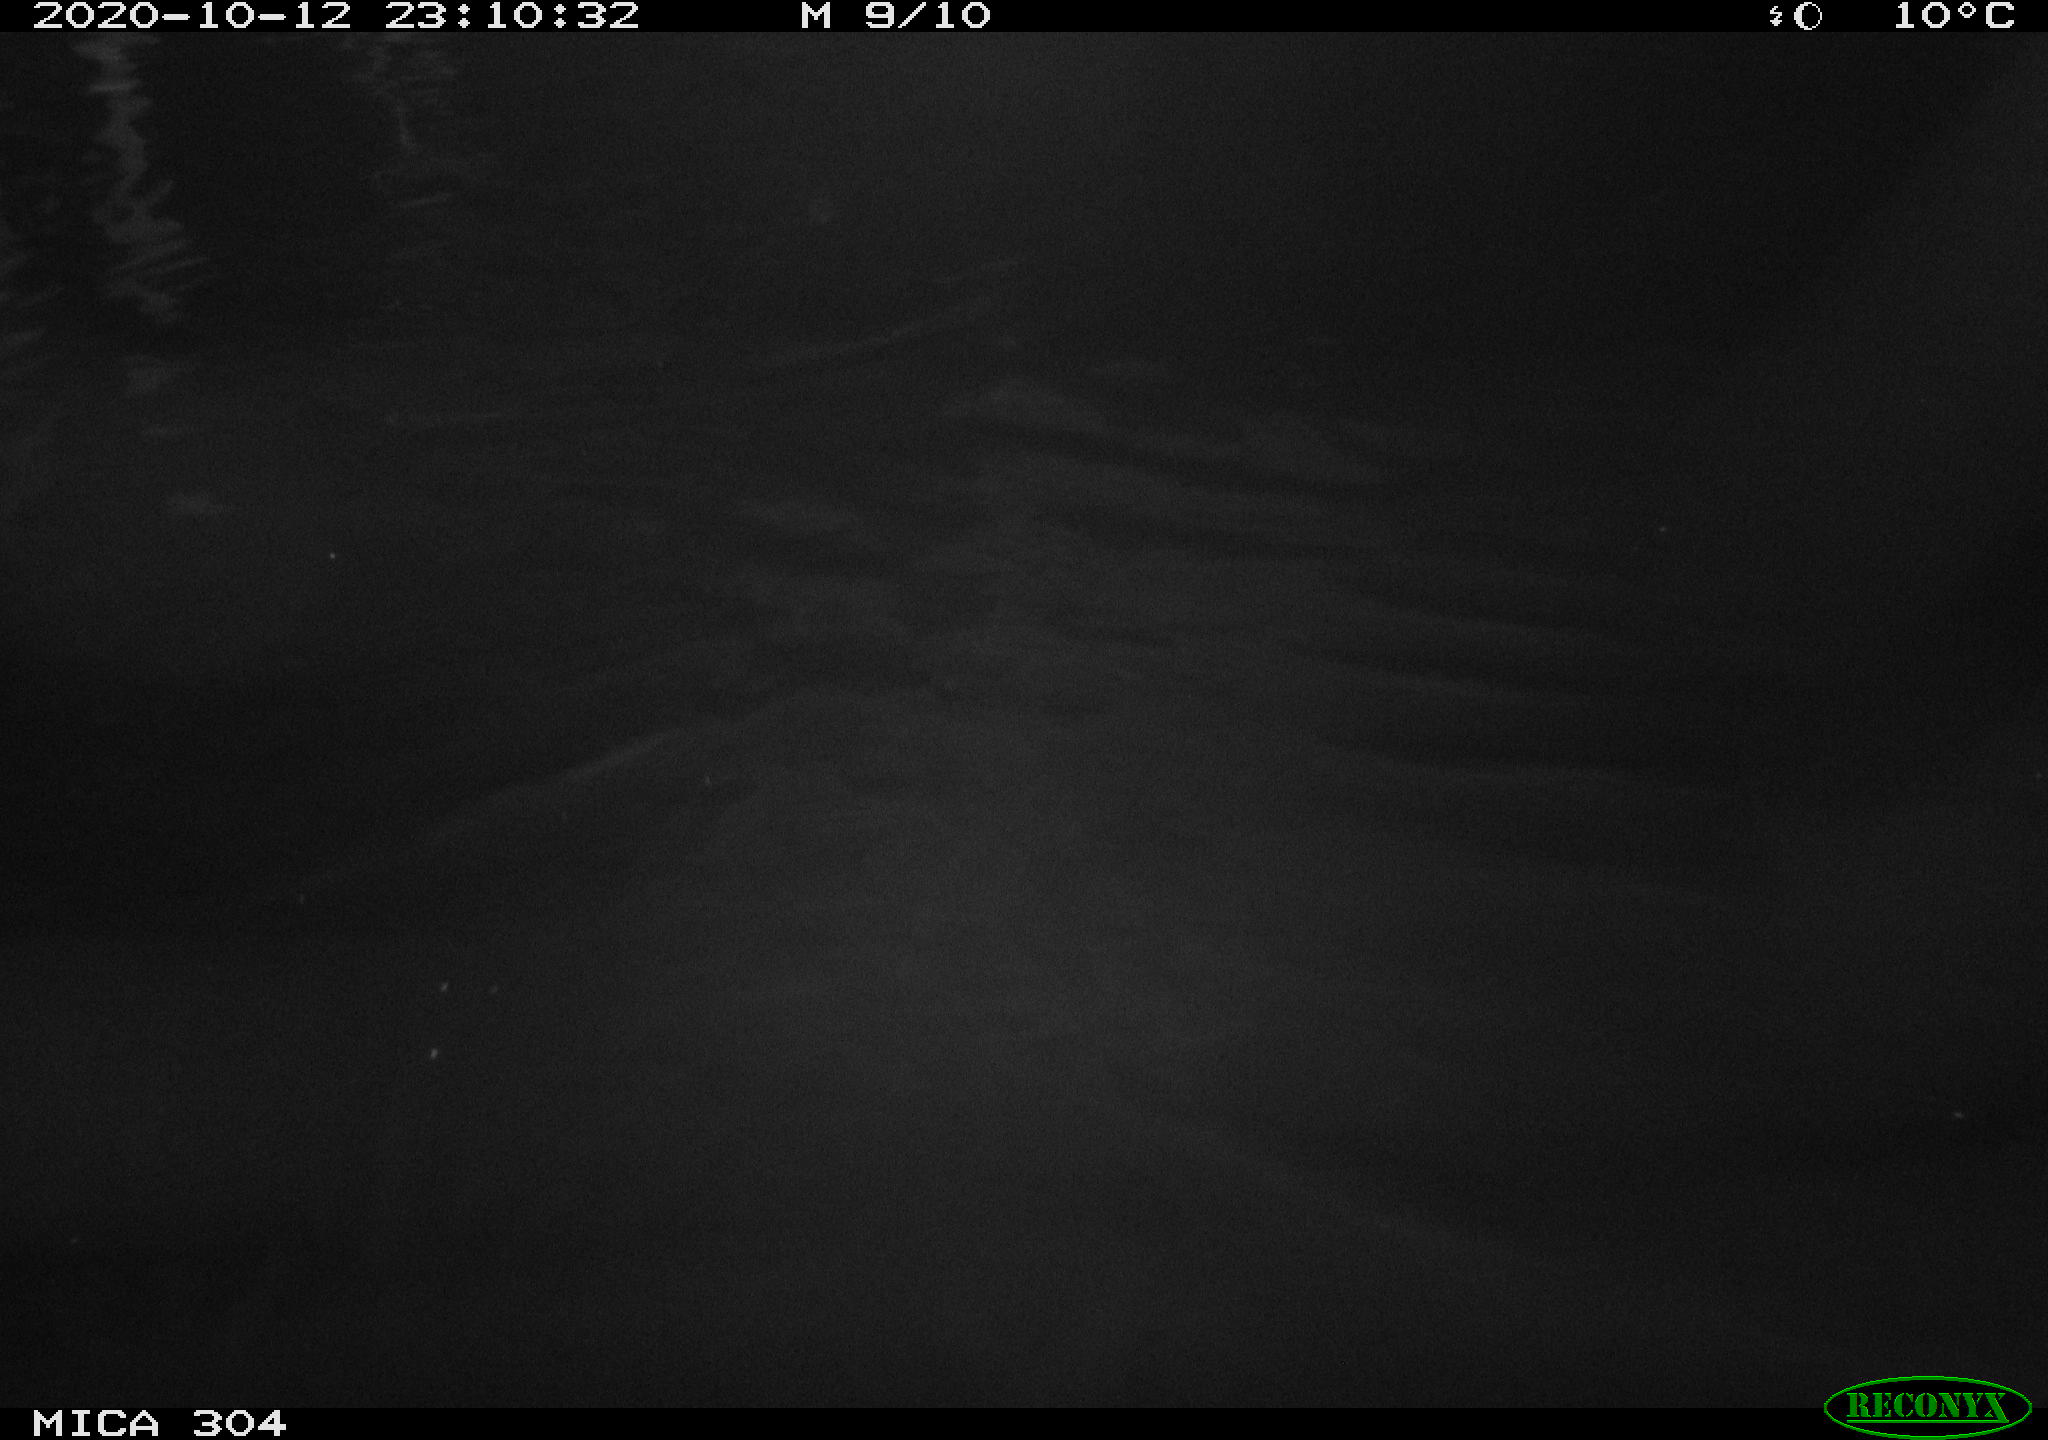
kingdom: Animalia
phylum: Chordata
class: Mammalia
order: Rodentia
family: Cricetidae
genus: Ondatra
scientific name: Ondatra zibethicus
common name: Muskrat
